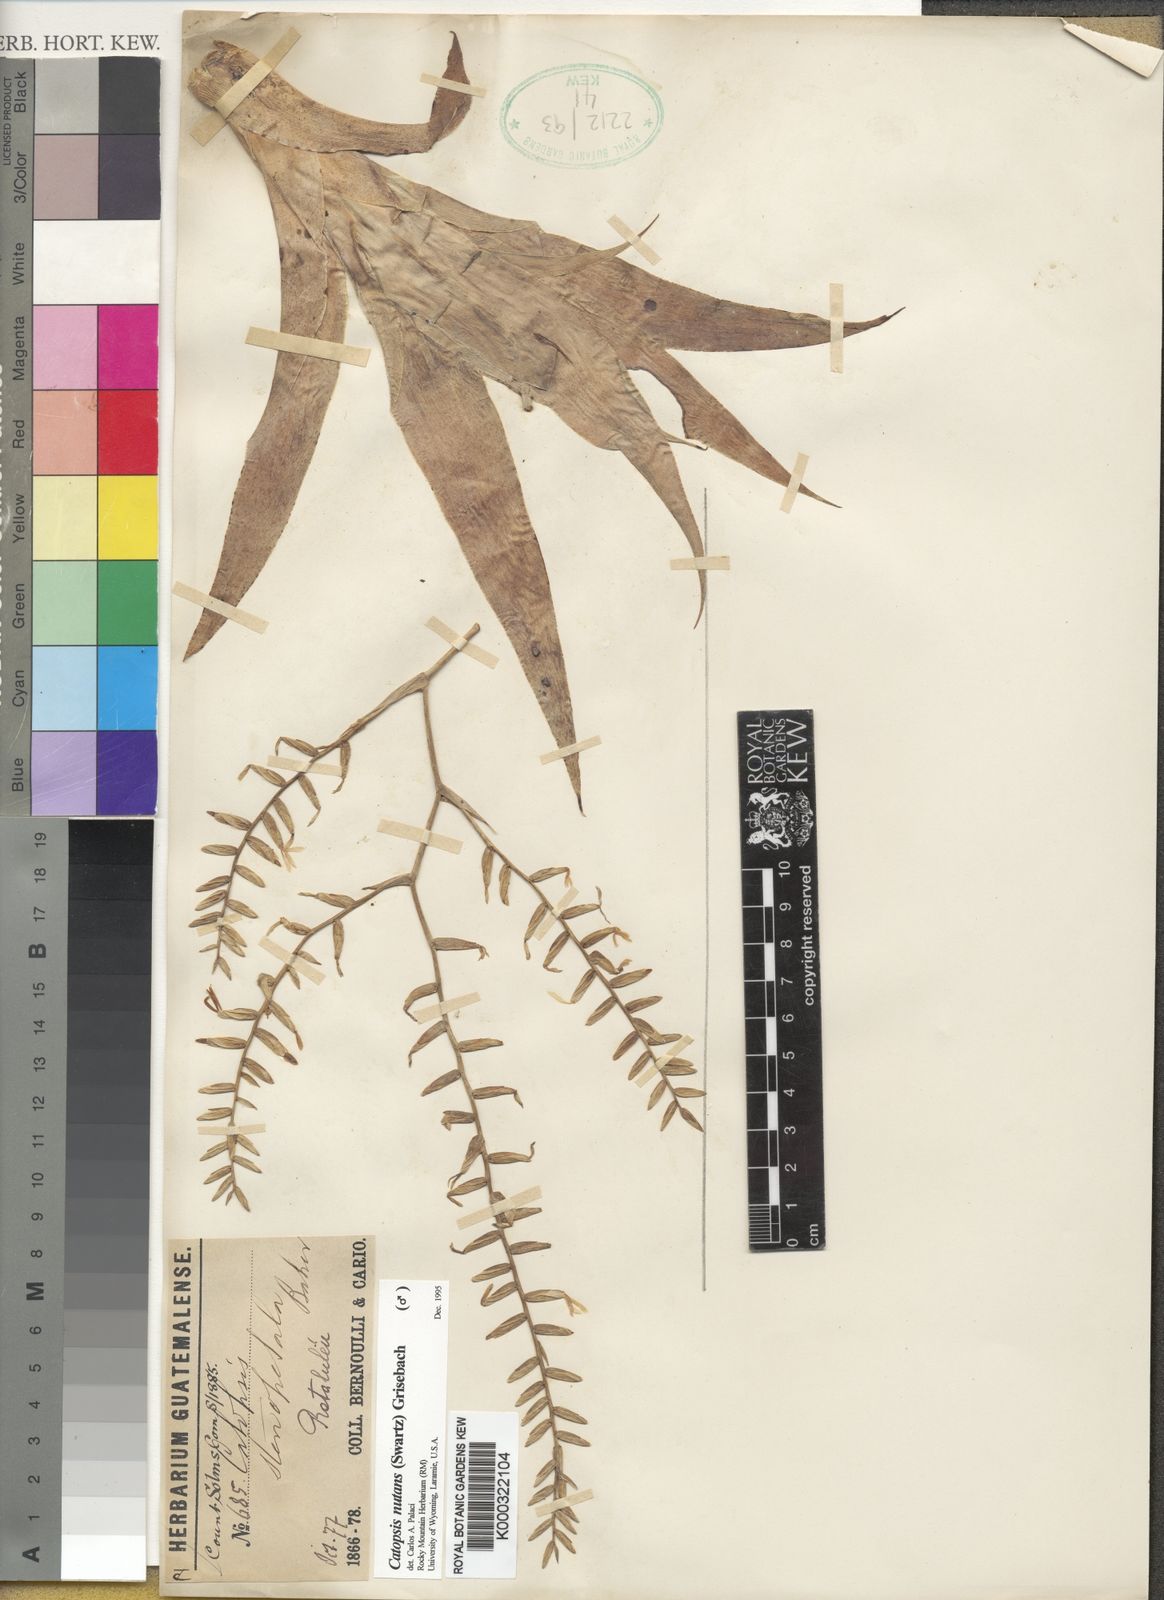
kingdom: Plantae
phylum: Tracheophyta
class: Liliopsida
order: Poales
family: Bromeliaceae
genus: Catopsis
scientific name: Catopsis nutans
